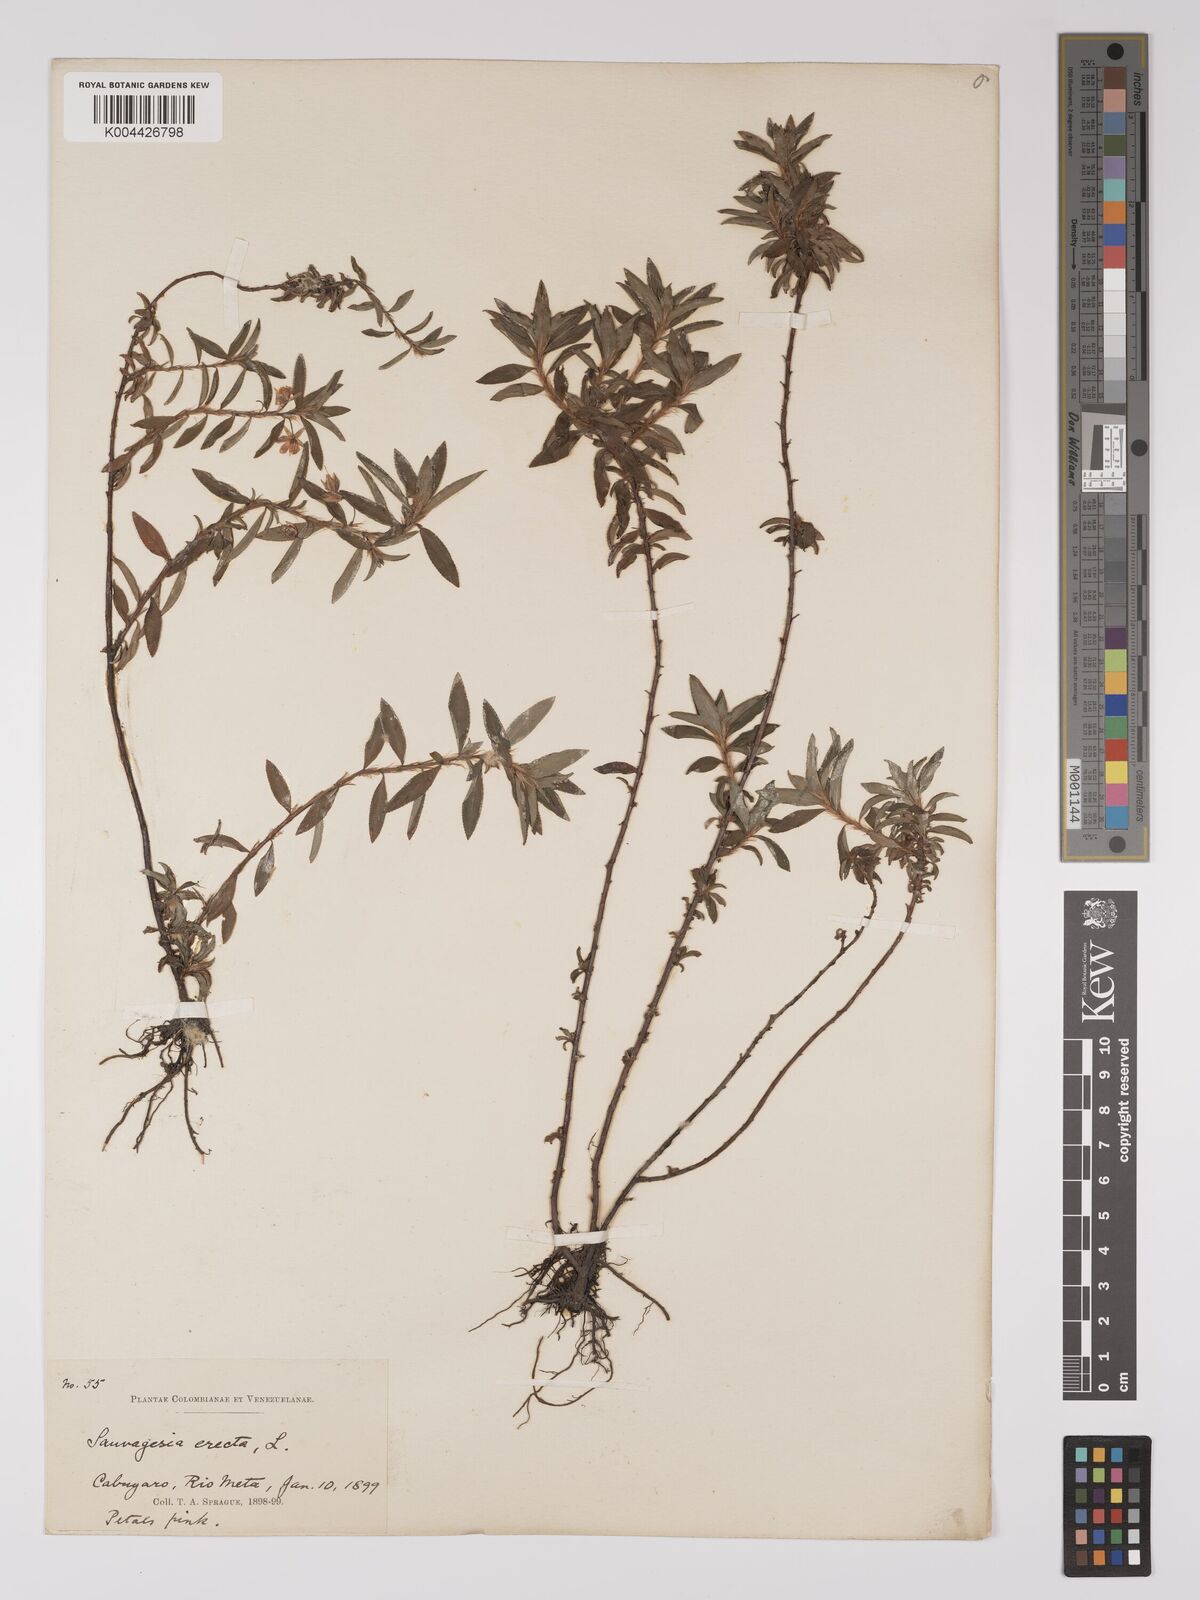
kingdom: Plantae
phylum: Tracheophyta
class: Magnoliopsida
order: Malpighiales
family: Ochnaceae
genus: Sauvagesia
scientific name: Sauvagesia erecta
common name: Creole tea
